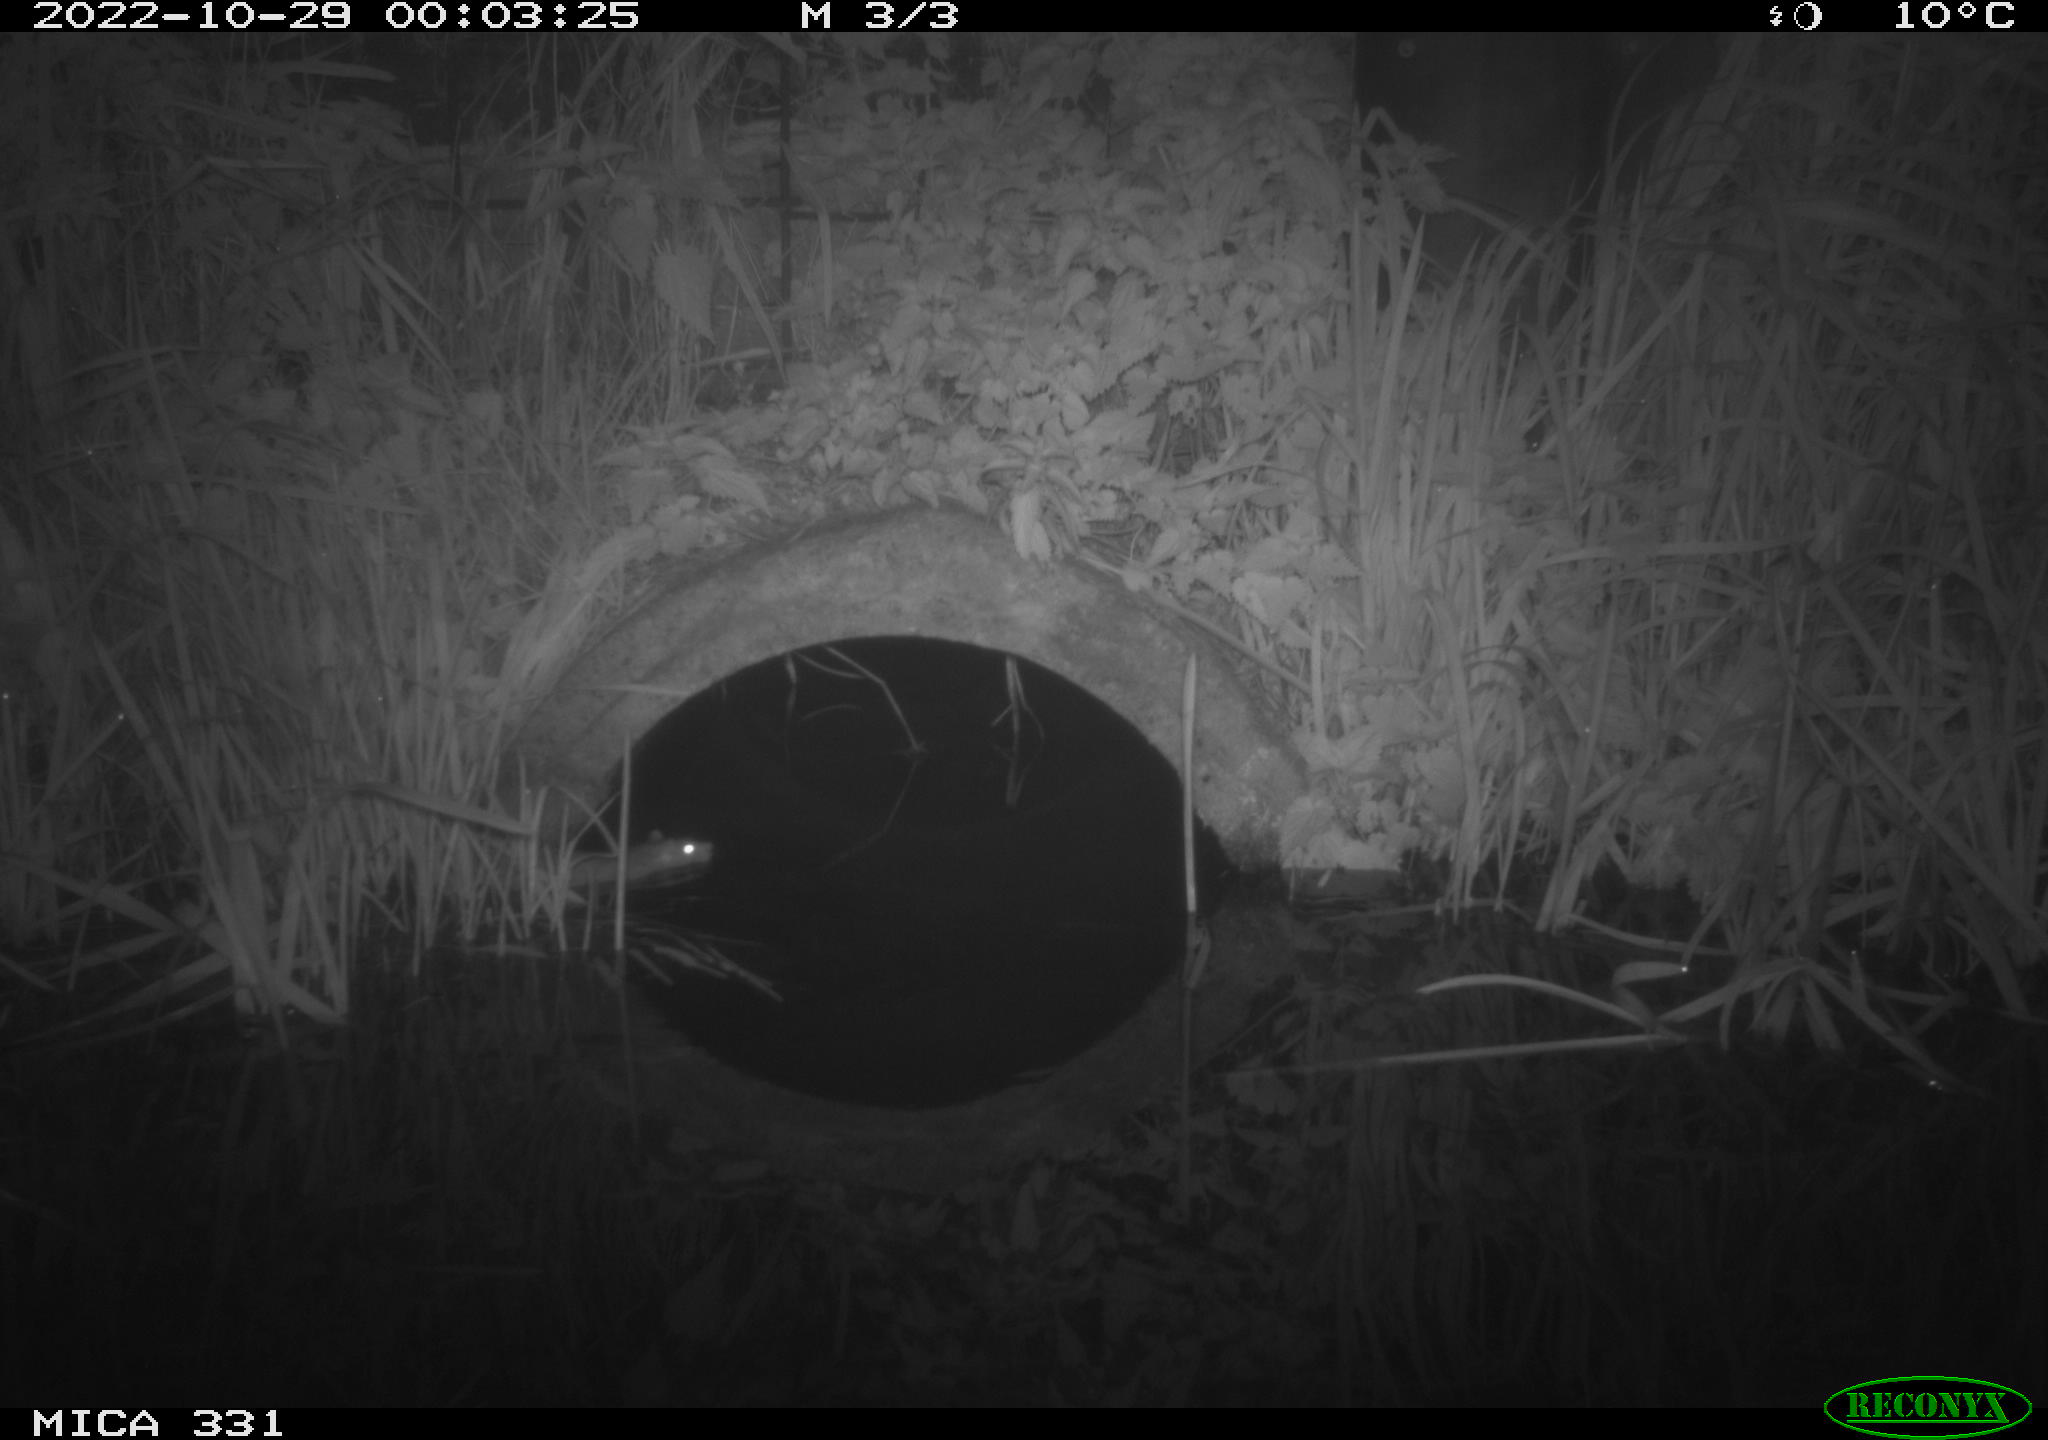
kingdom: Animalia
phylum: Chordata
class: Mammalia
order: Rodentia
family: Muridae
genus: Rattus
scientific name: Rattus norvegicus
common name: Brown rat
